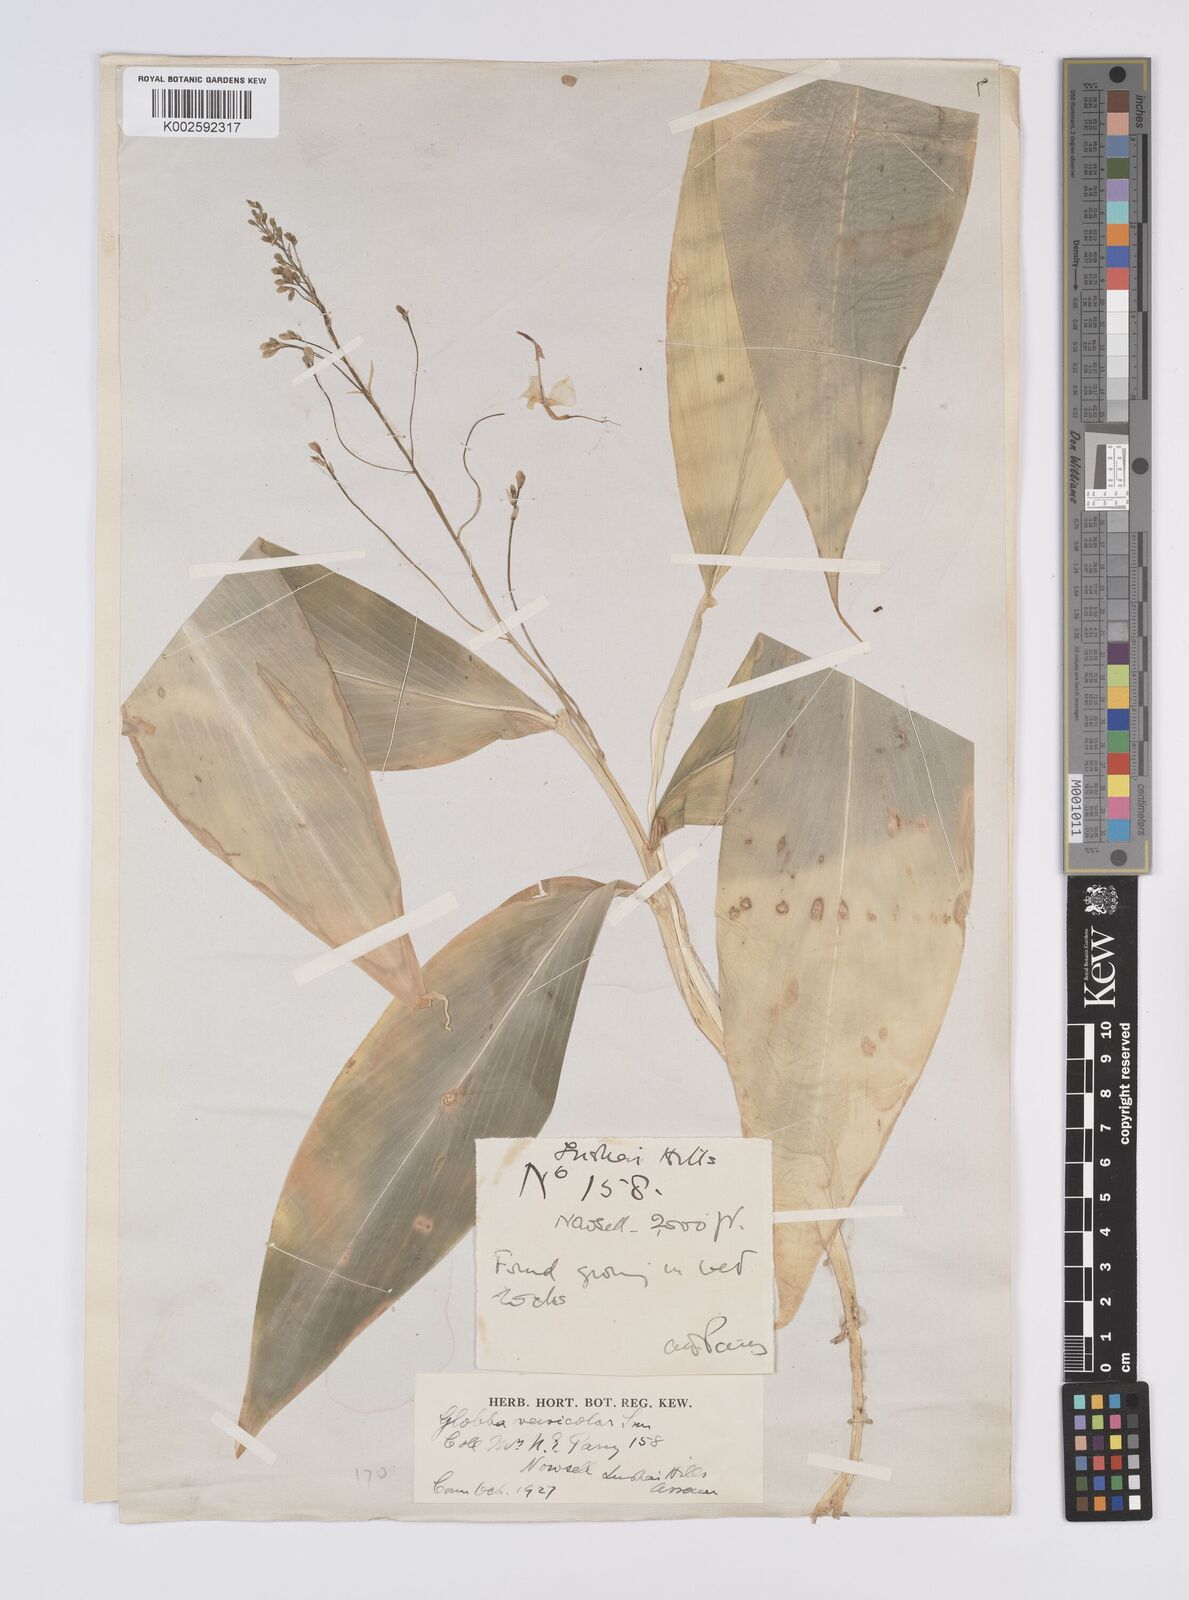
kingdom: Plantae
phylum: Tracheophyta
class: Liliopsida
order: Zingiberales
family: Zingiberaceae
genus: Globba
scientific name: Globba pendula
